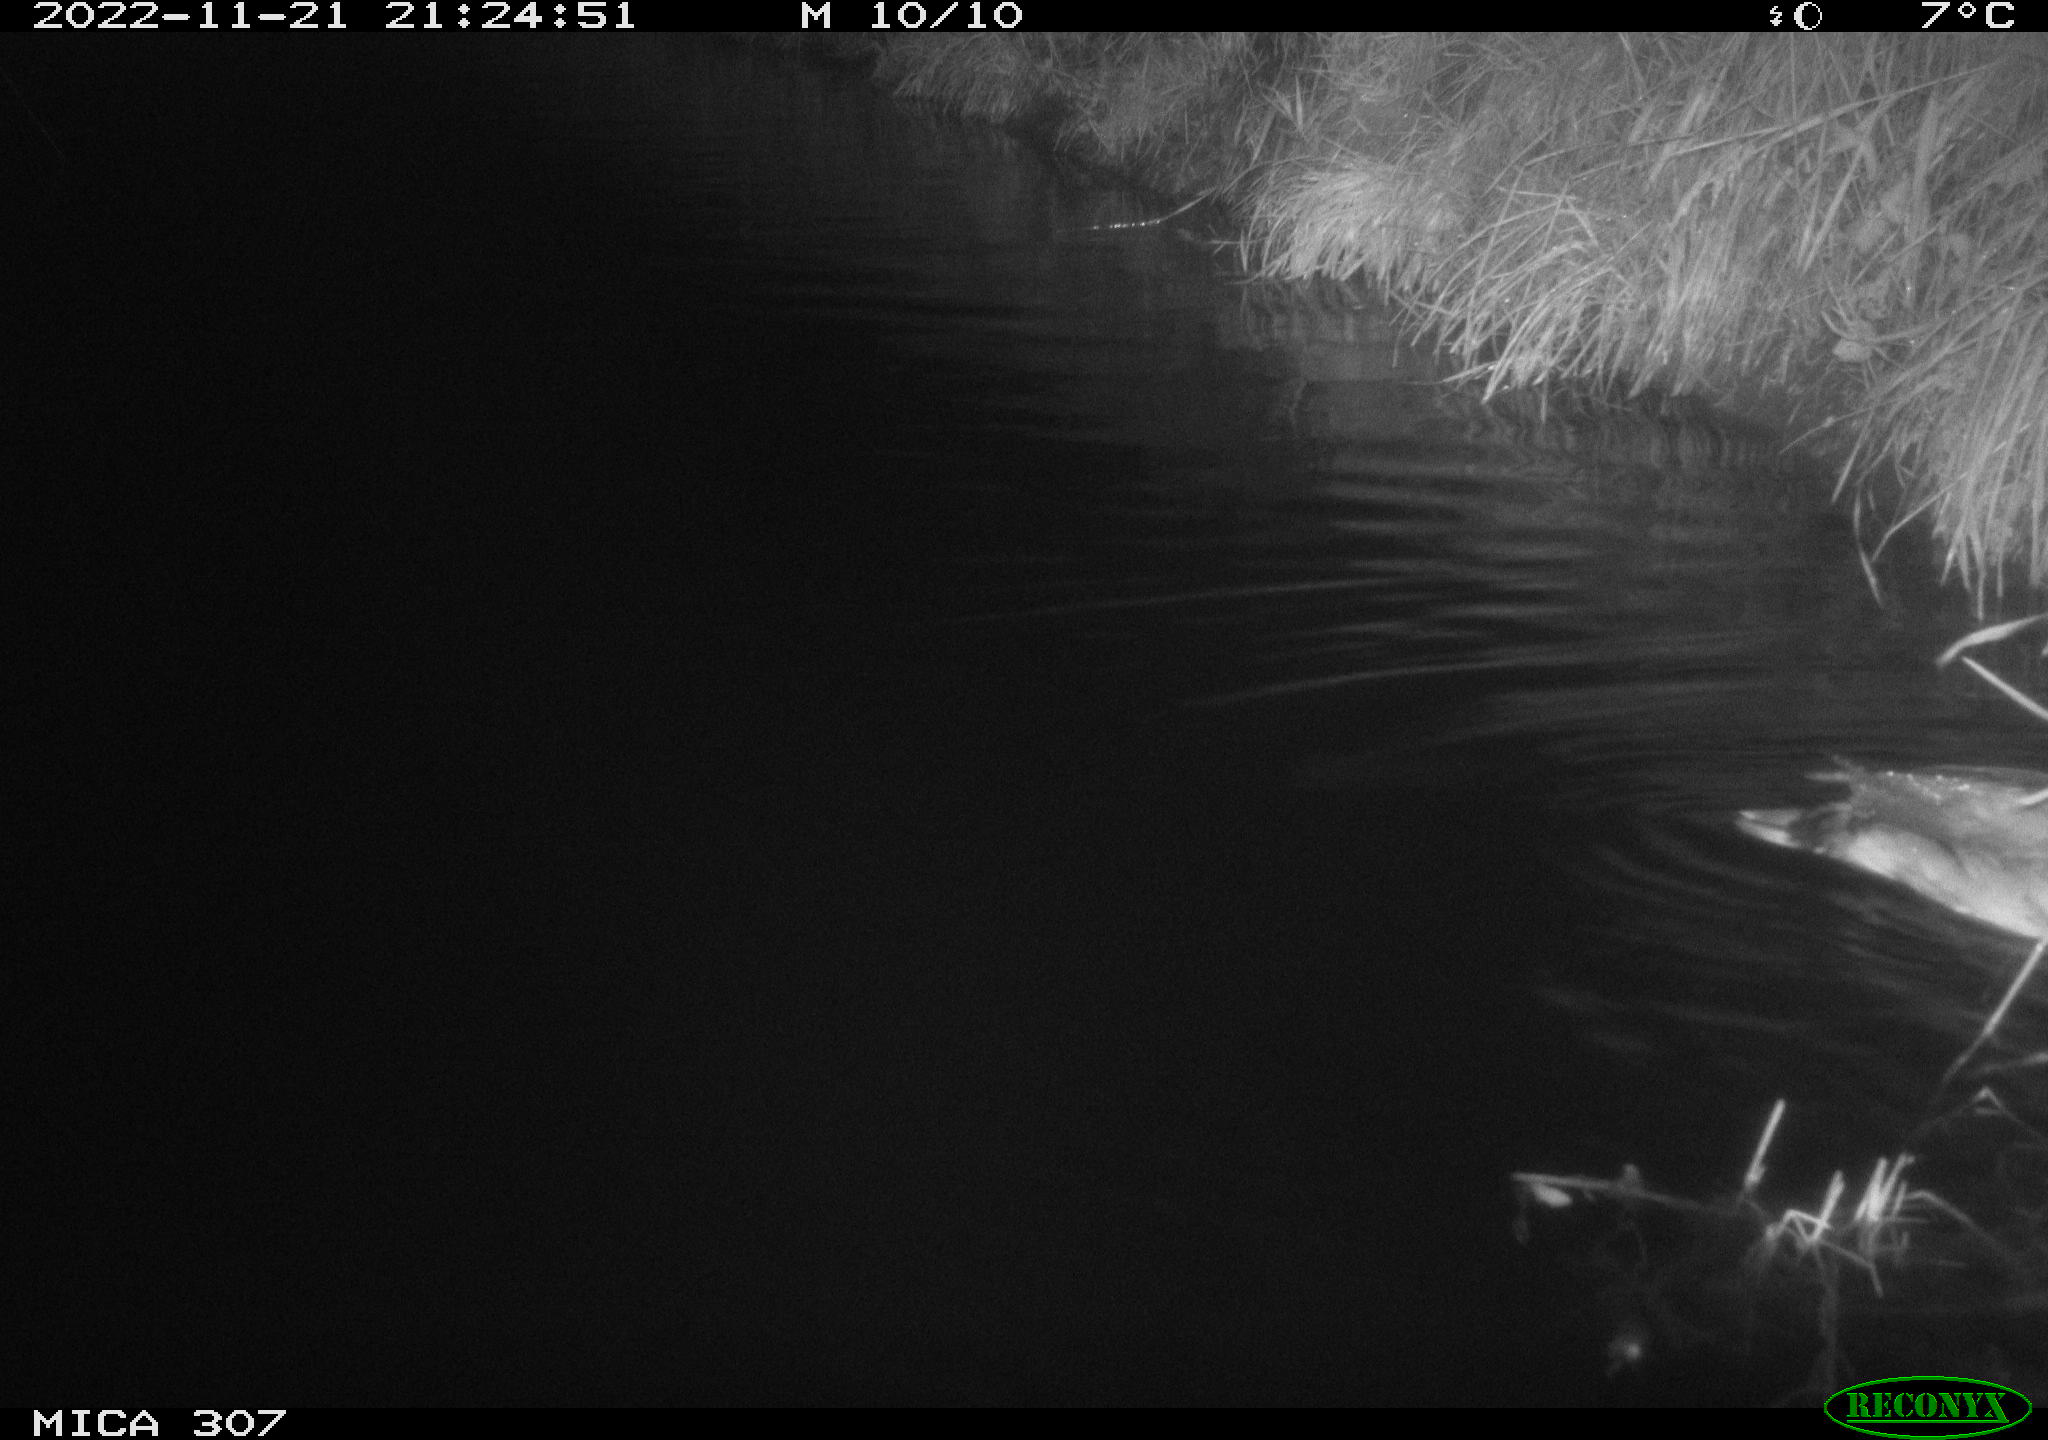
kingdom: Animalia
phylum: Chordata
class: Aves
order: Anseriformes
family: Anatidae
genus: Anas
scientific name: Anas
